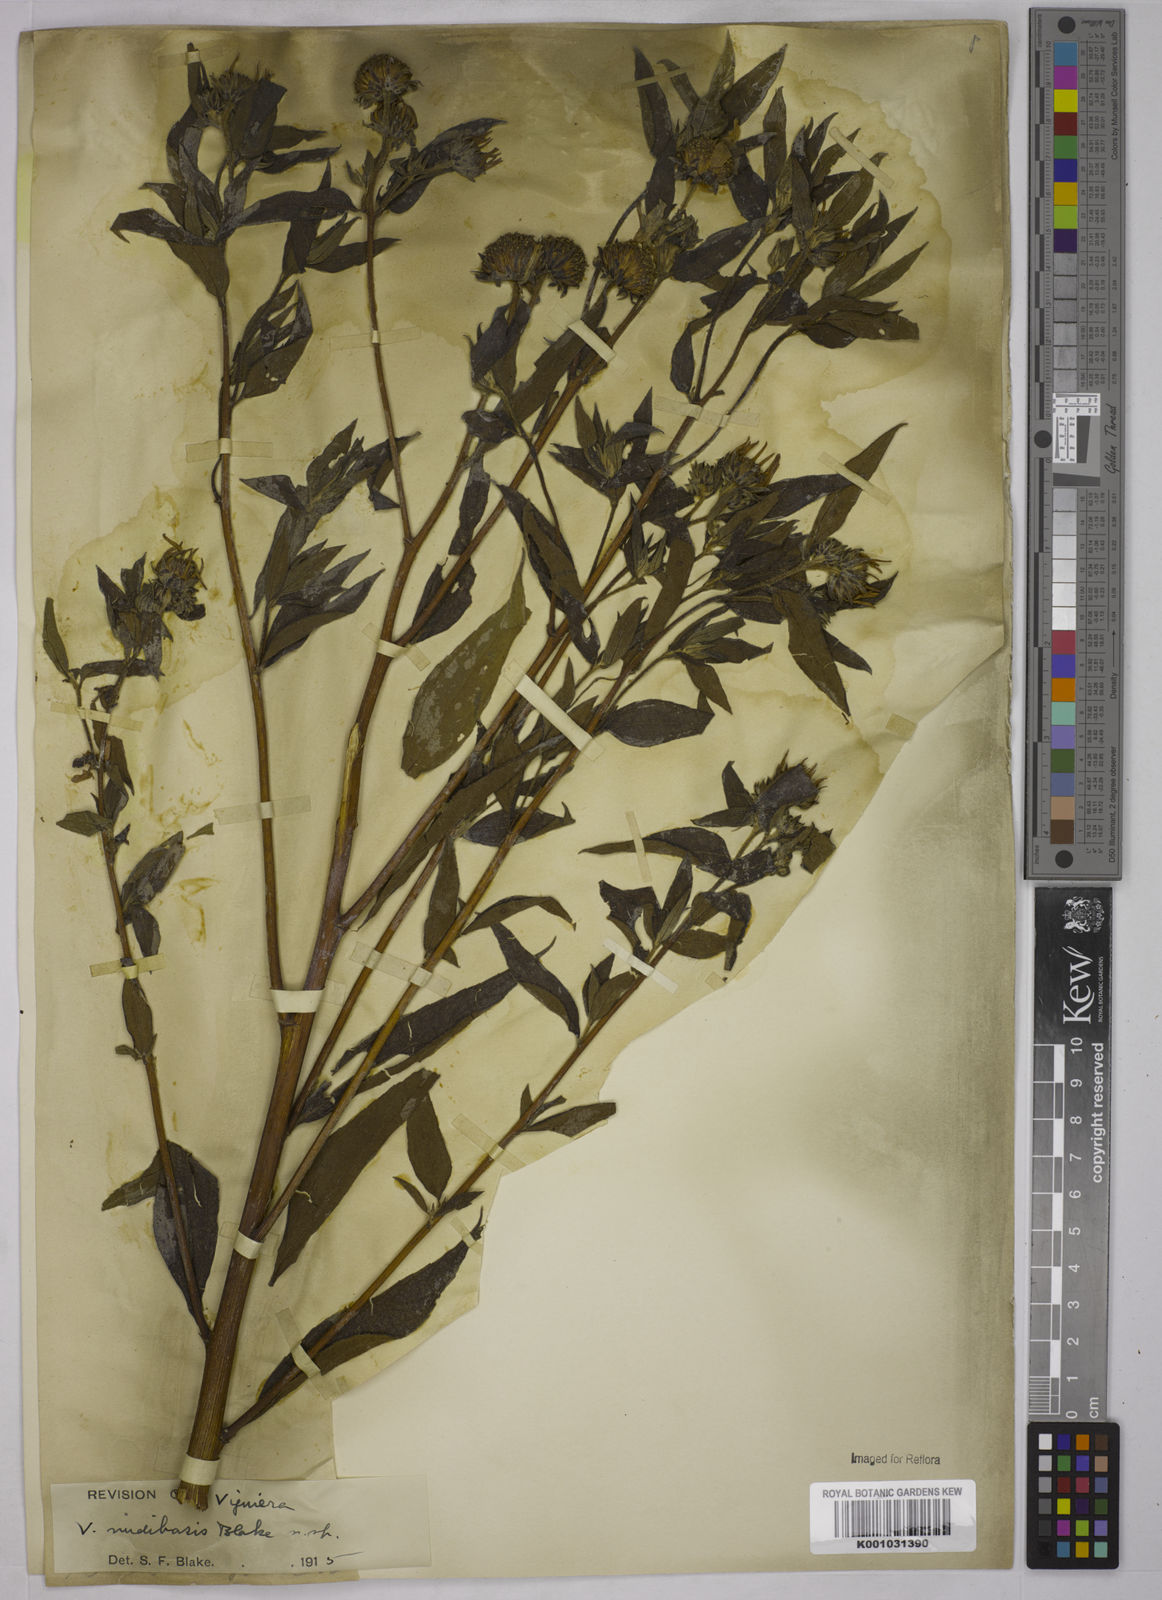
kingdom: Plantae
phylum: Tracheophyta
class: Magnoliopsida
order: Asterales
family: Asteraceae
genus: Aldama
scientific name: Aldama nudibasilaris
